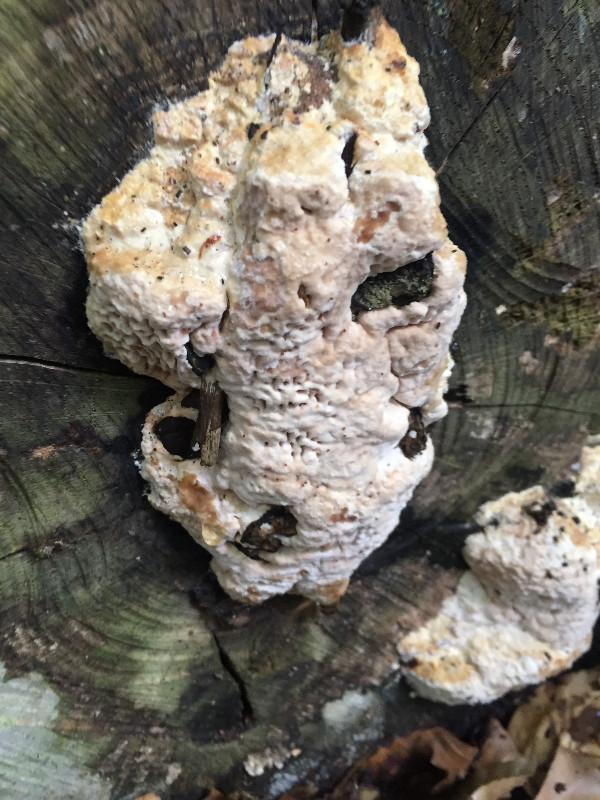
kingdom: Fungi
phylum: Basidiomycota
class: Agaricomycetes
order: Polyporales
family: Fomitopsidaceae
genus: Daedalea
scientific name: Daedalea quercina
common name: ege-labyrintsvamp
